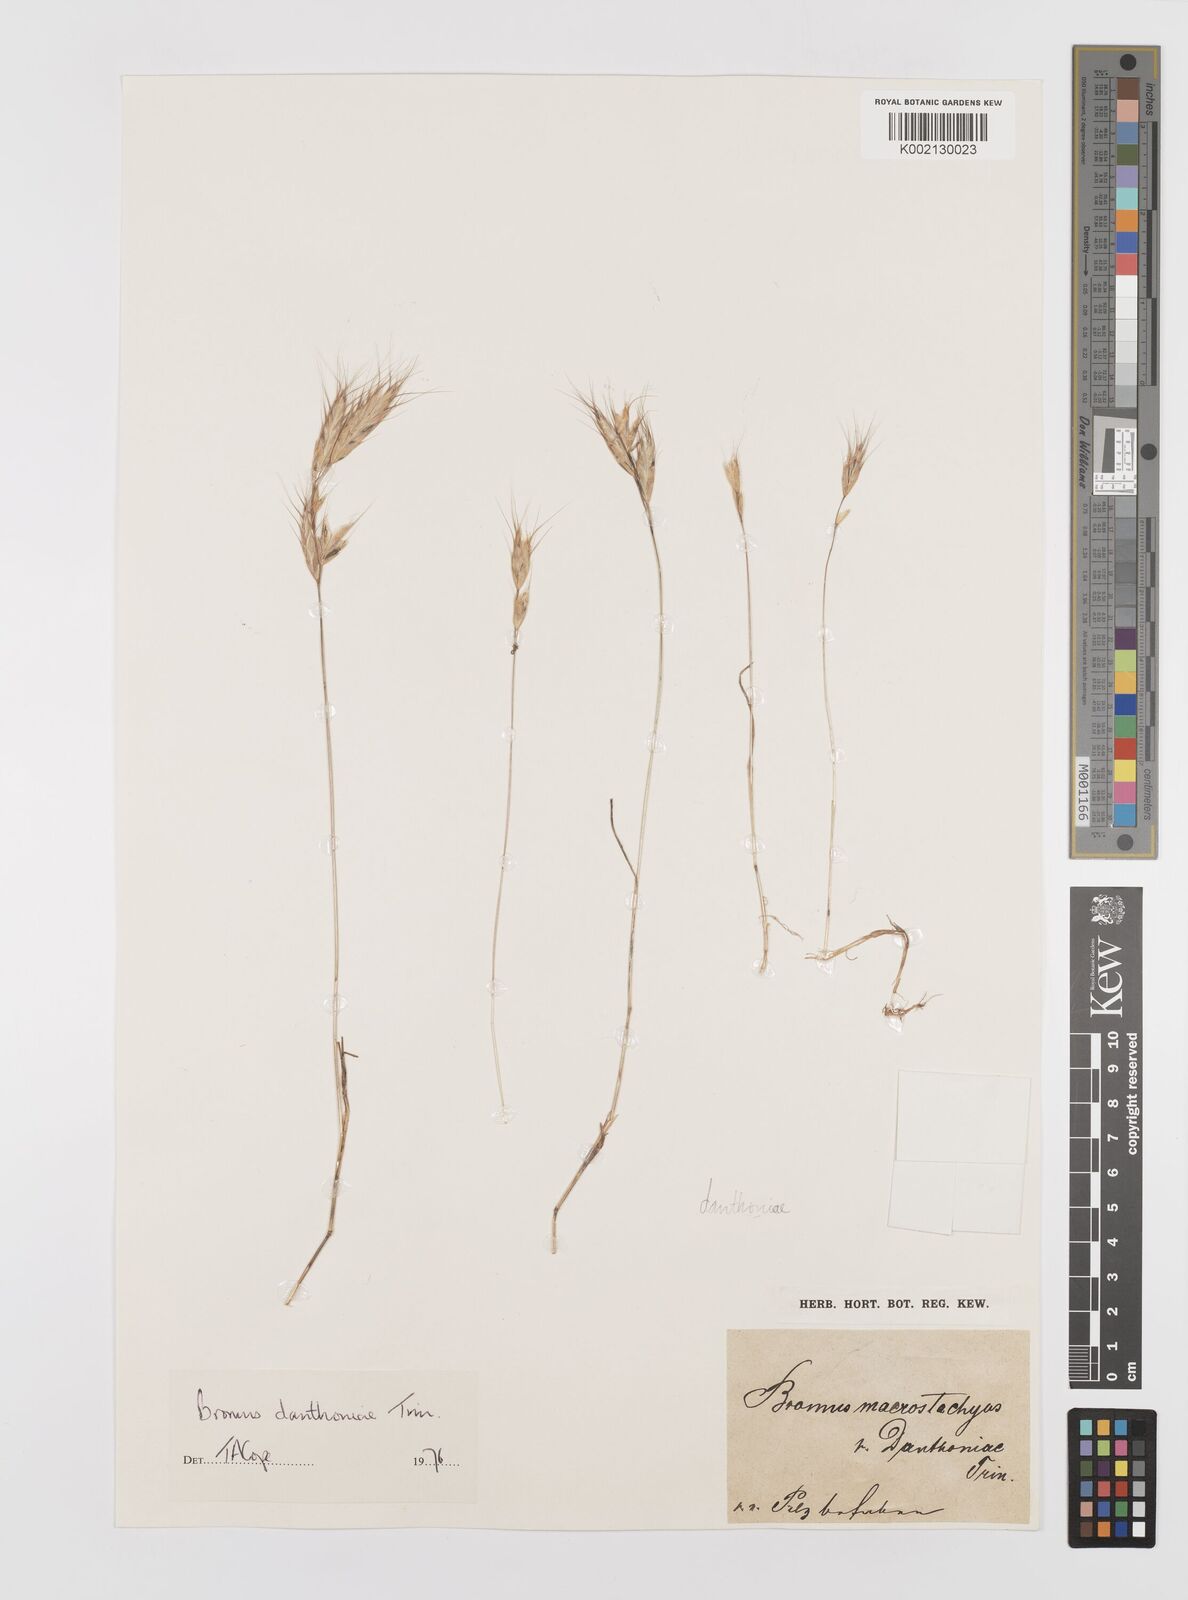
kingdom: Plantae
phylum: Tracheophyta
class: Liliopsida
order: Poales
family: Poaceae
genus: Bromus
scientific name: Bromus danthoniae
